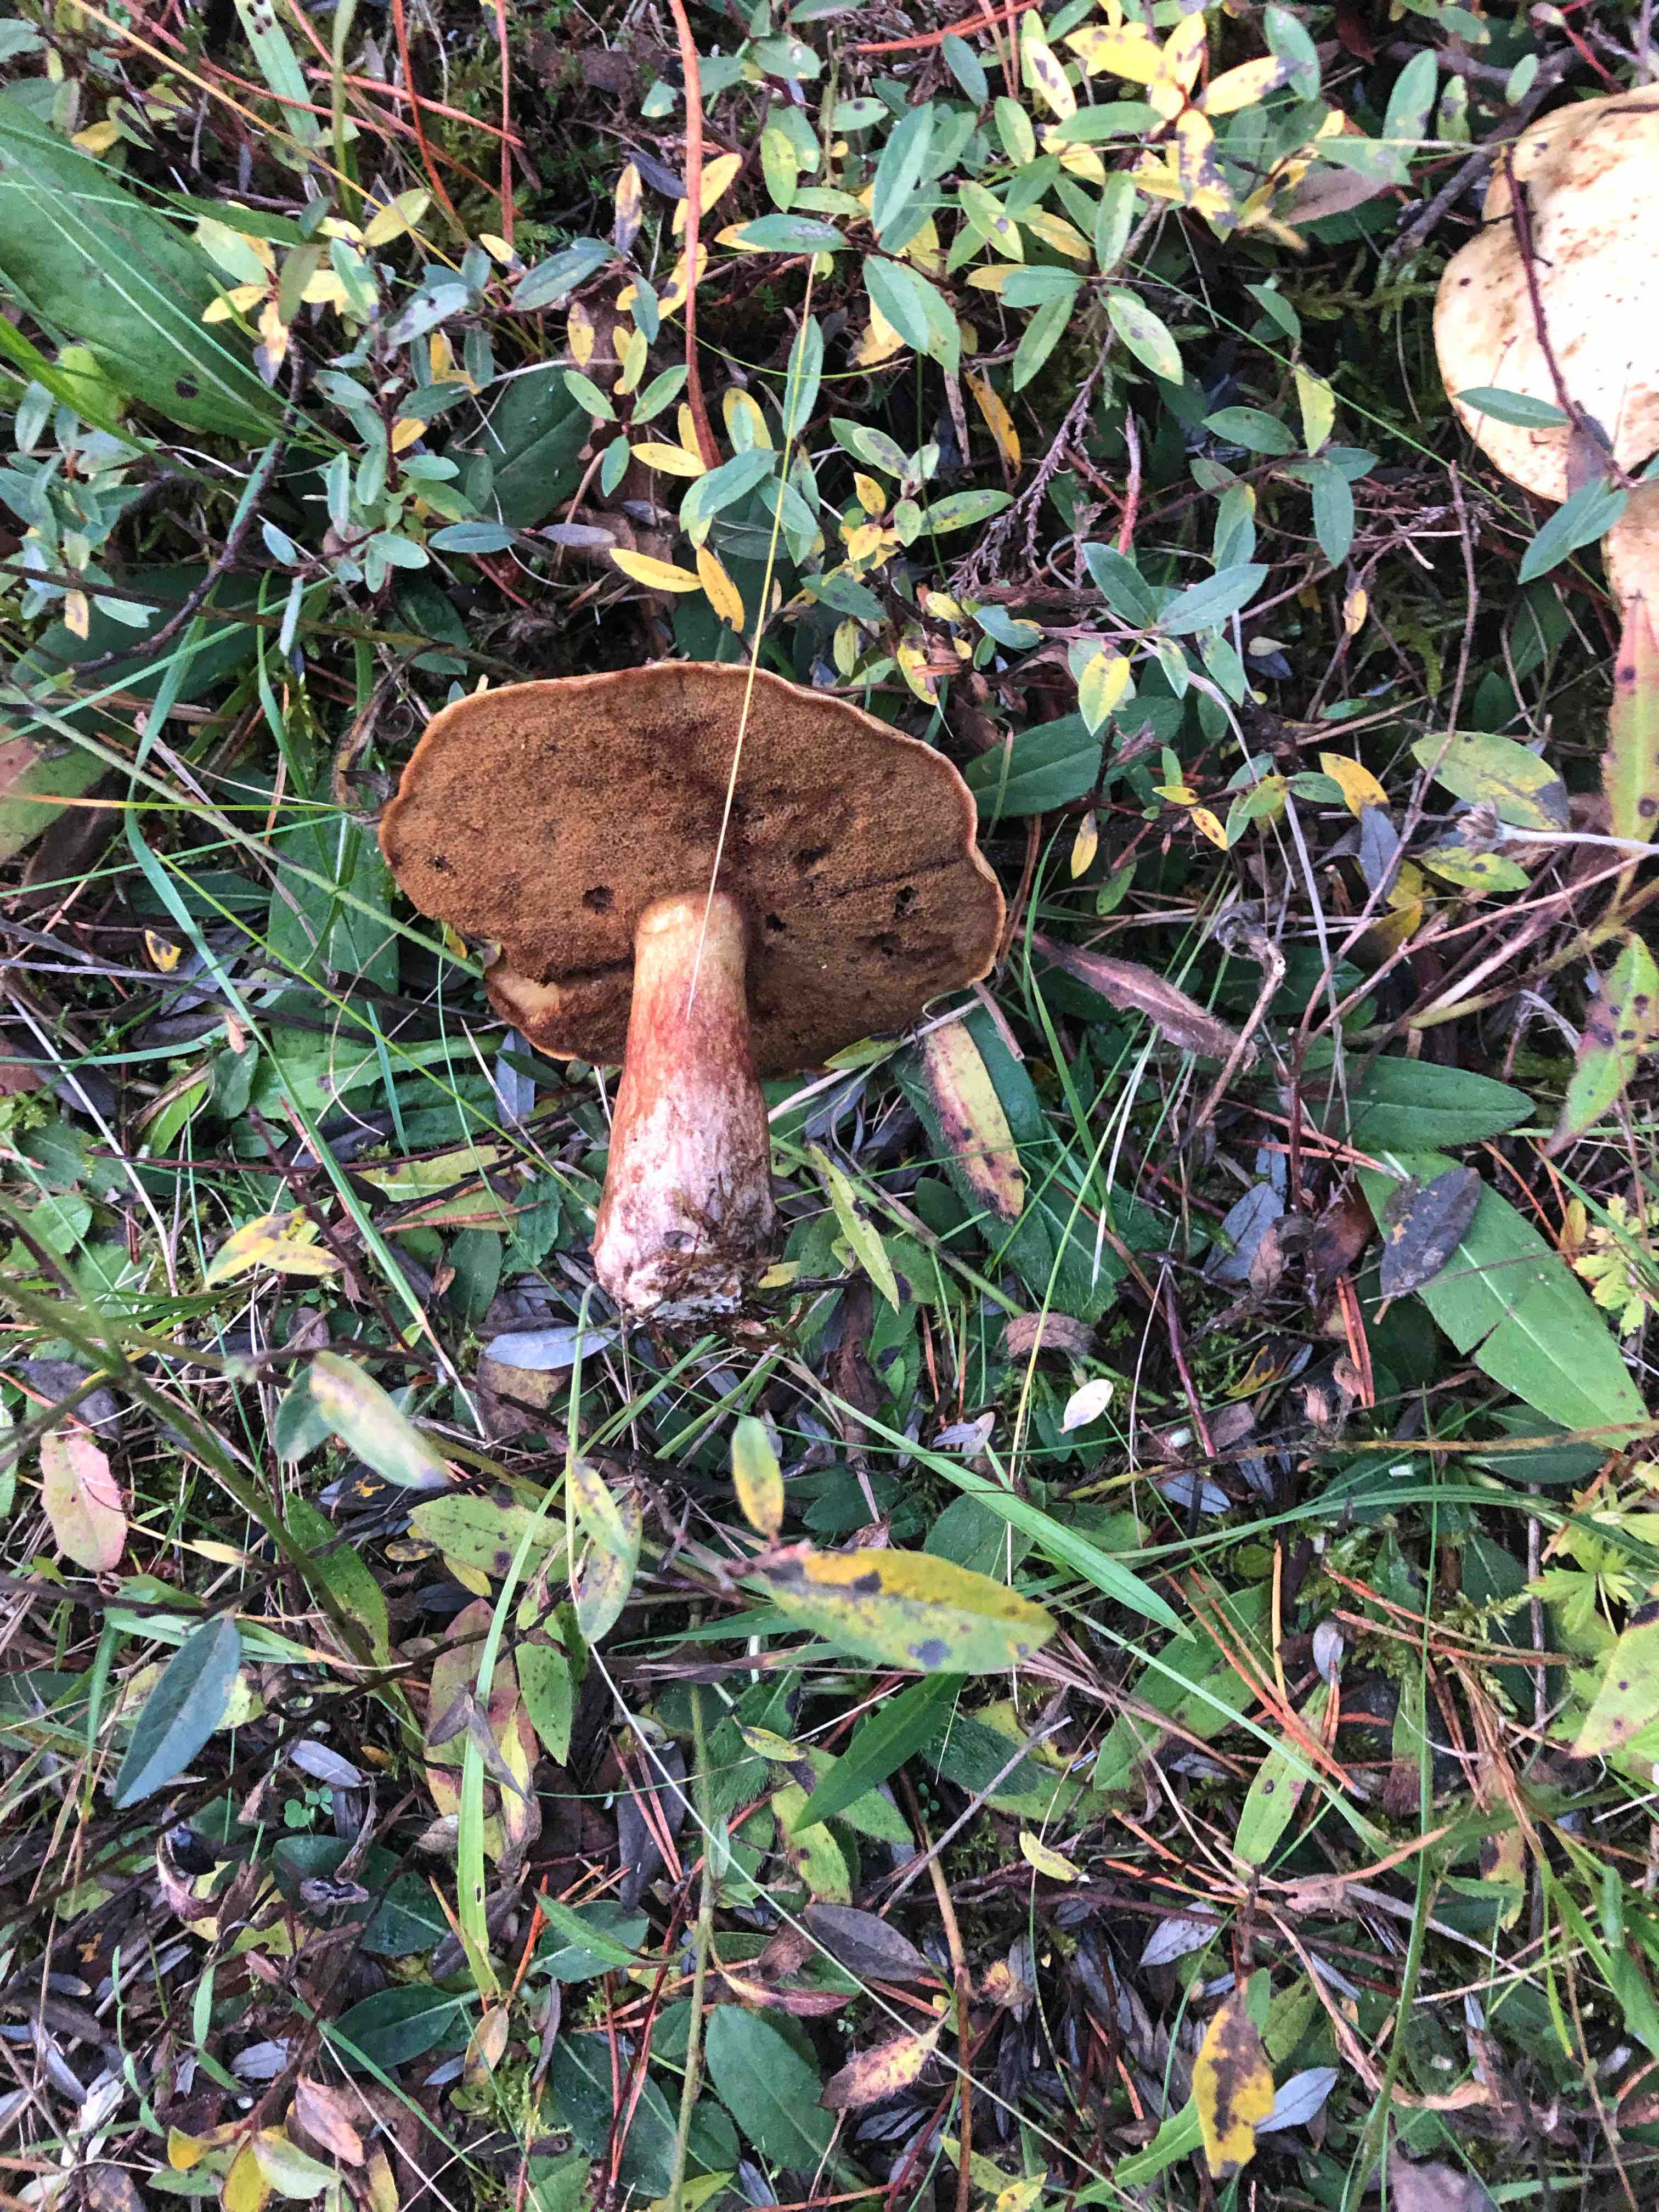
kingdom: Fungi
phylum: Basidiomycota
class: Agaricomycetes
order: Boletales
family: Suillaceae
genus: Suillus
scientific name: Suillus bovinus
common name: grovporet slimrørhat
